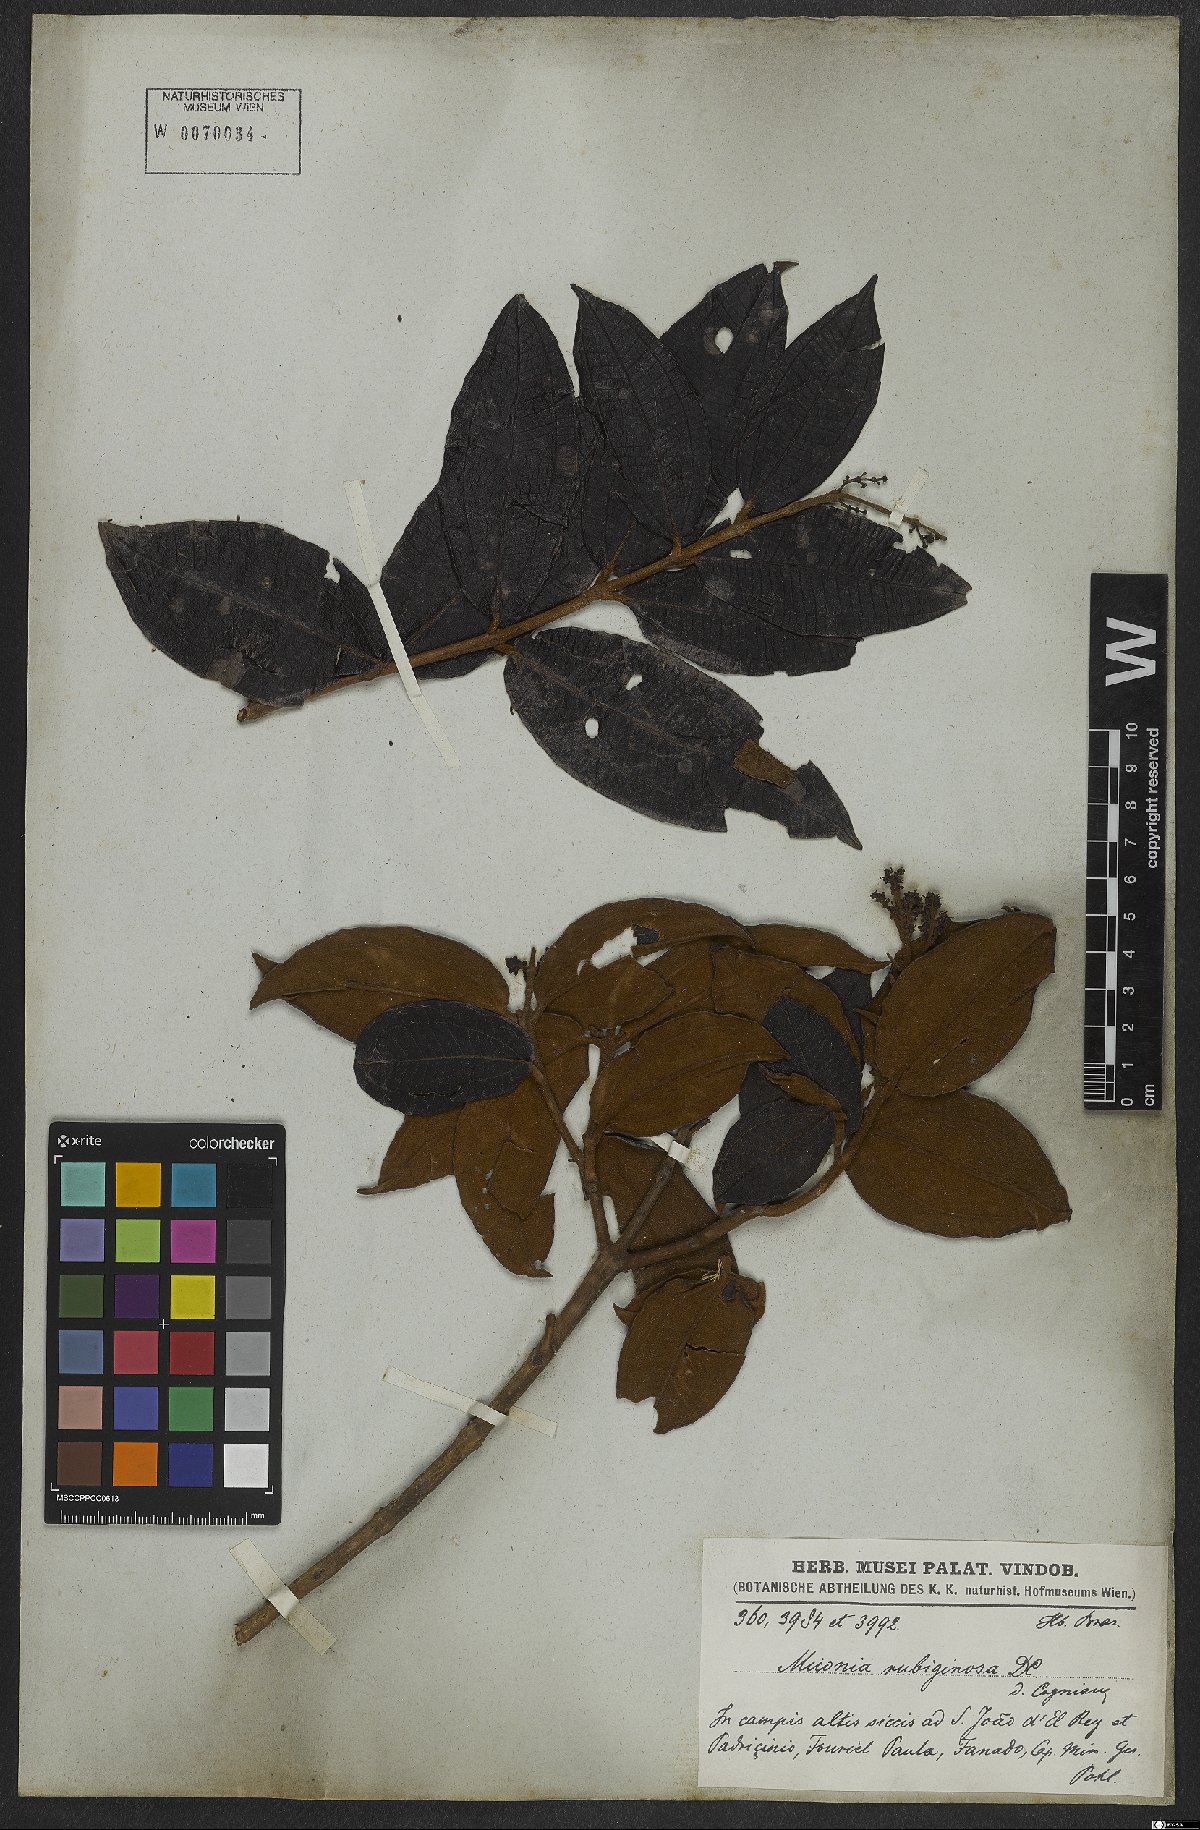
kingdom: Plantae
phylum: Tracheophyta
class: Magnoliopsida
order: Myrtales
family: Melastomataceae
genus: Miconia
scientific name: Miconia rubiginosa
